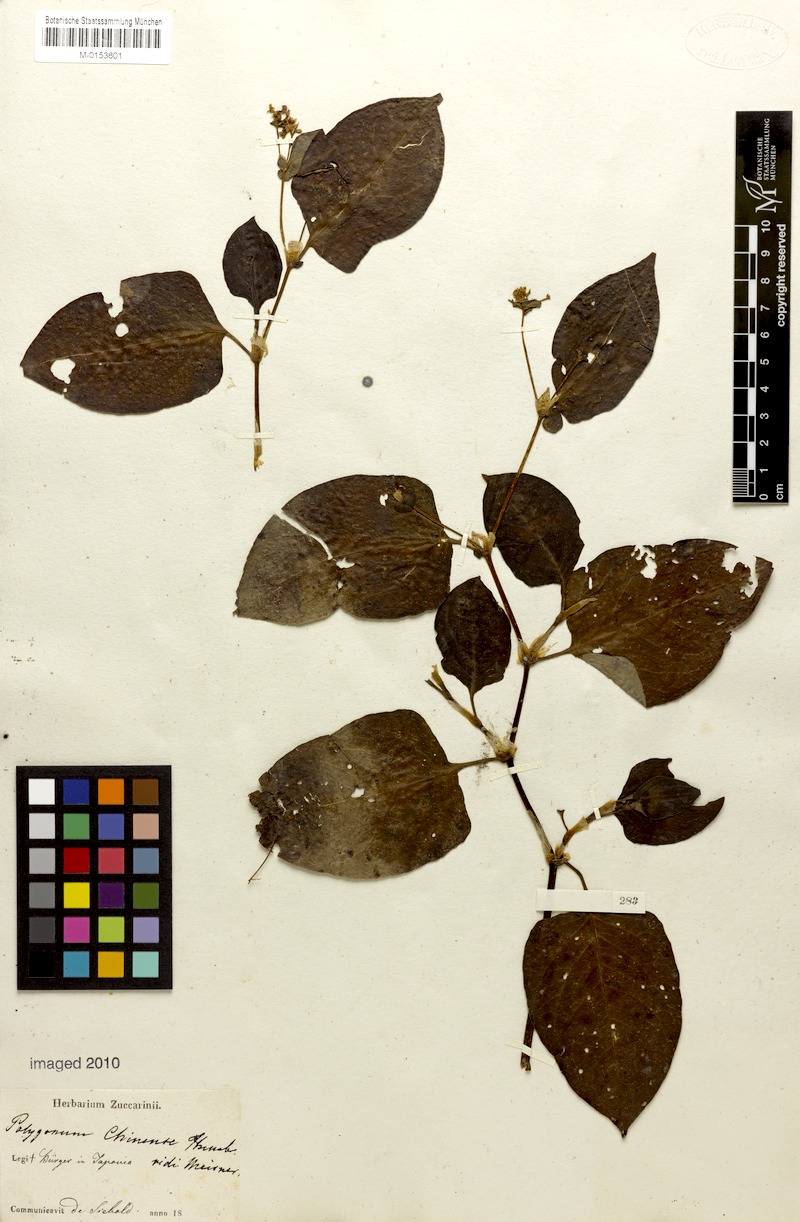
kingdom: Plantae
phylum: Tracheophyta
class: Magnoliopsida
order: Caryophyllales
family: Polygonaceae
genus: Persicaria
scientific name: Persicaria chinensis
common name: Chinese knotweed
